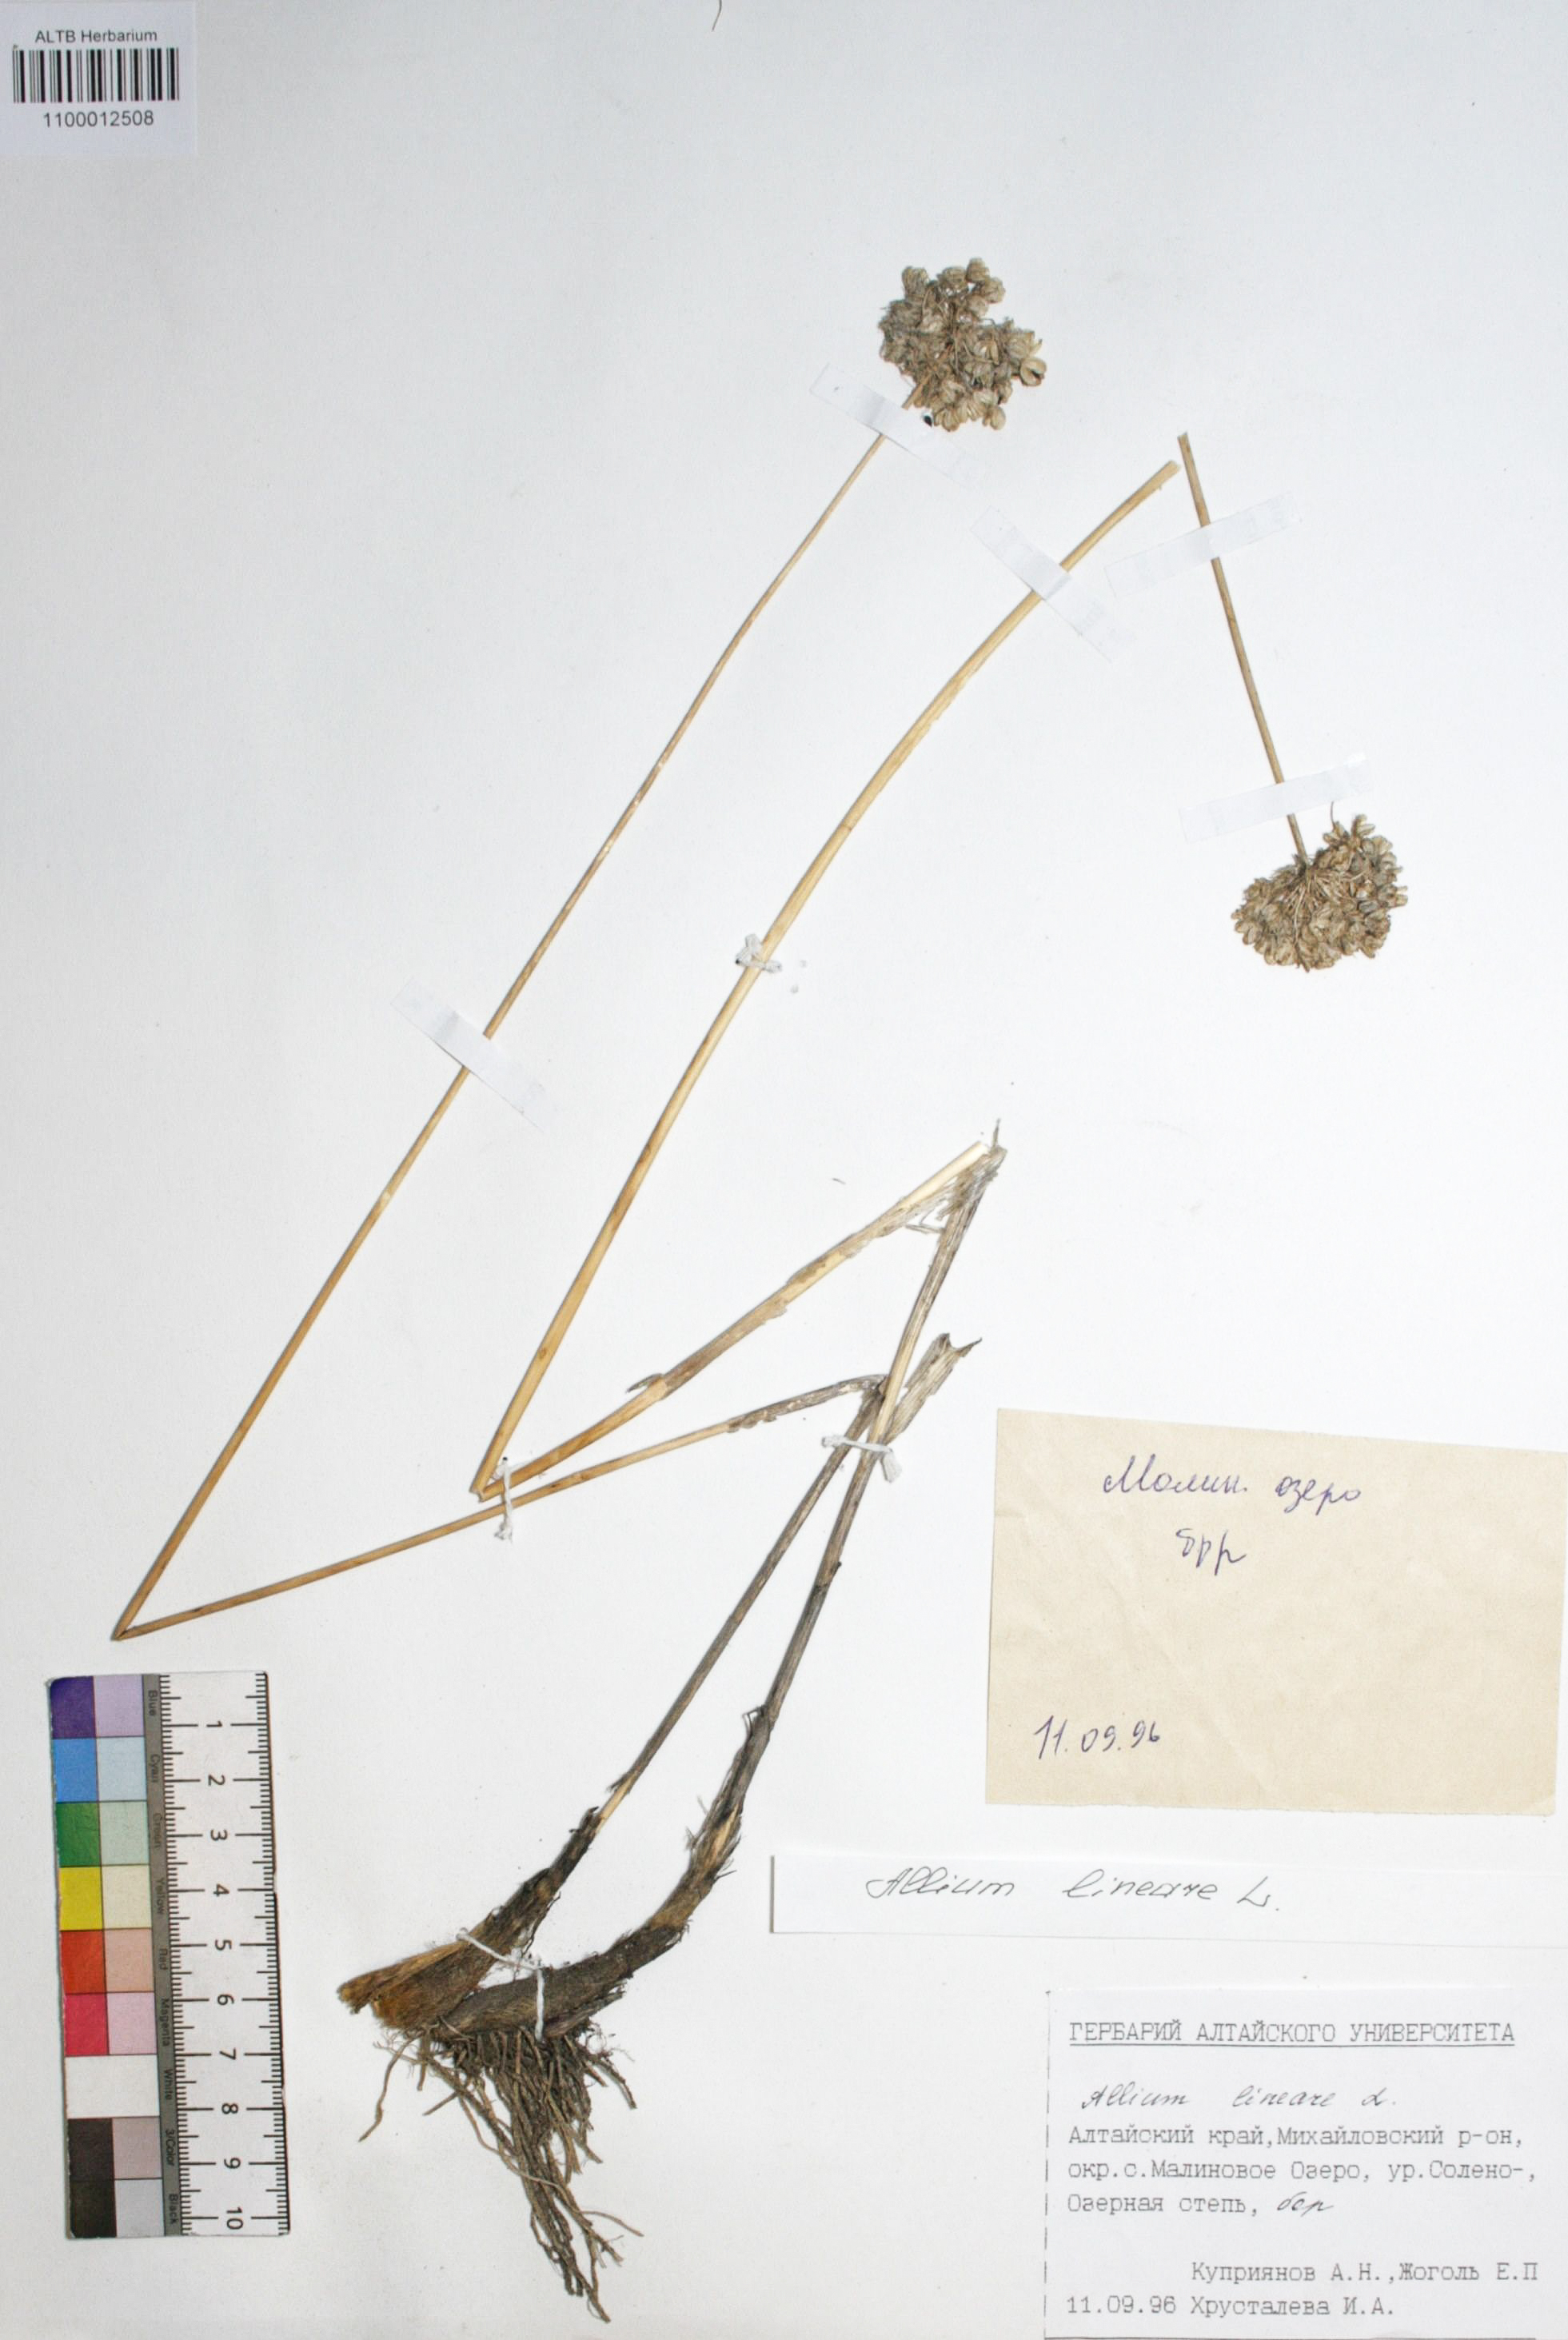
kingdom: Plantae
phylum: Tracheophyta
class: Liliopsida
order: Asparagales
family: Amaryllidaceae
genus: Allium
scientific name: Allium lineare
